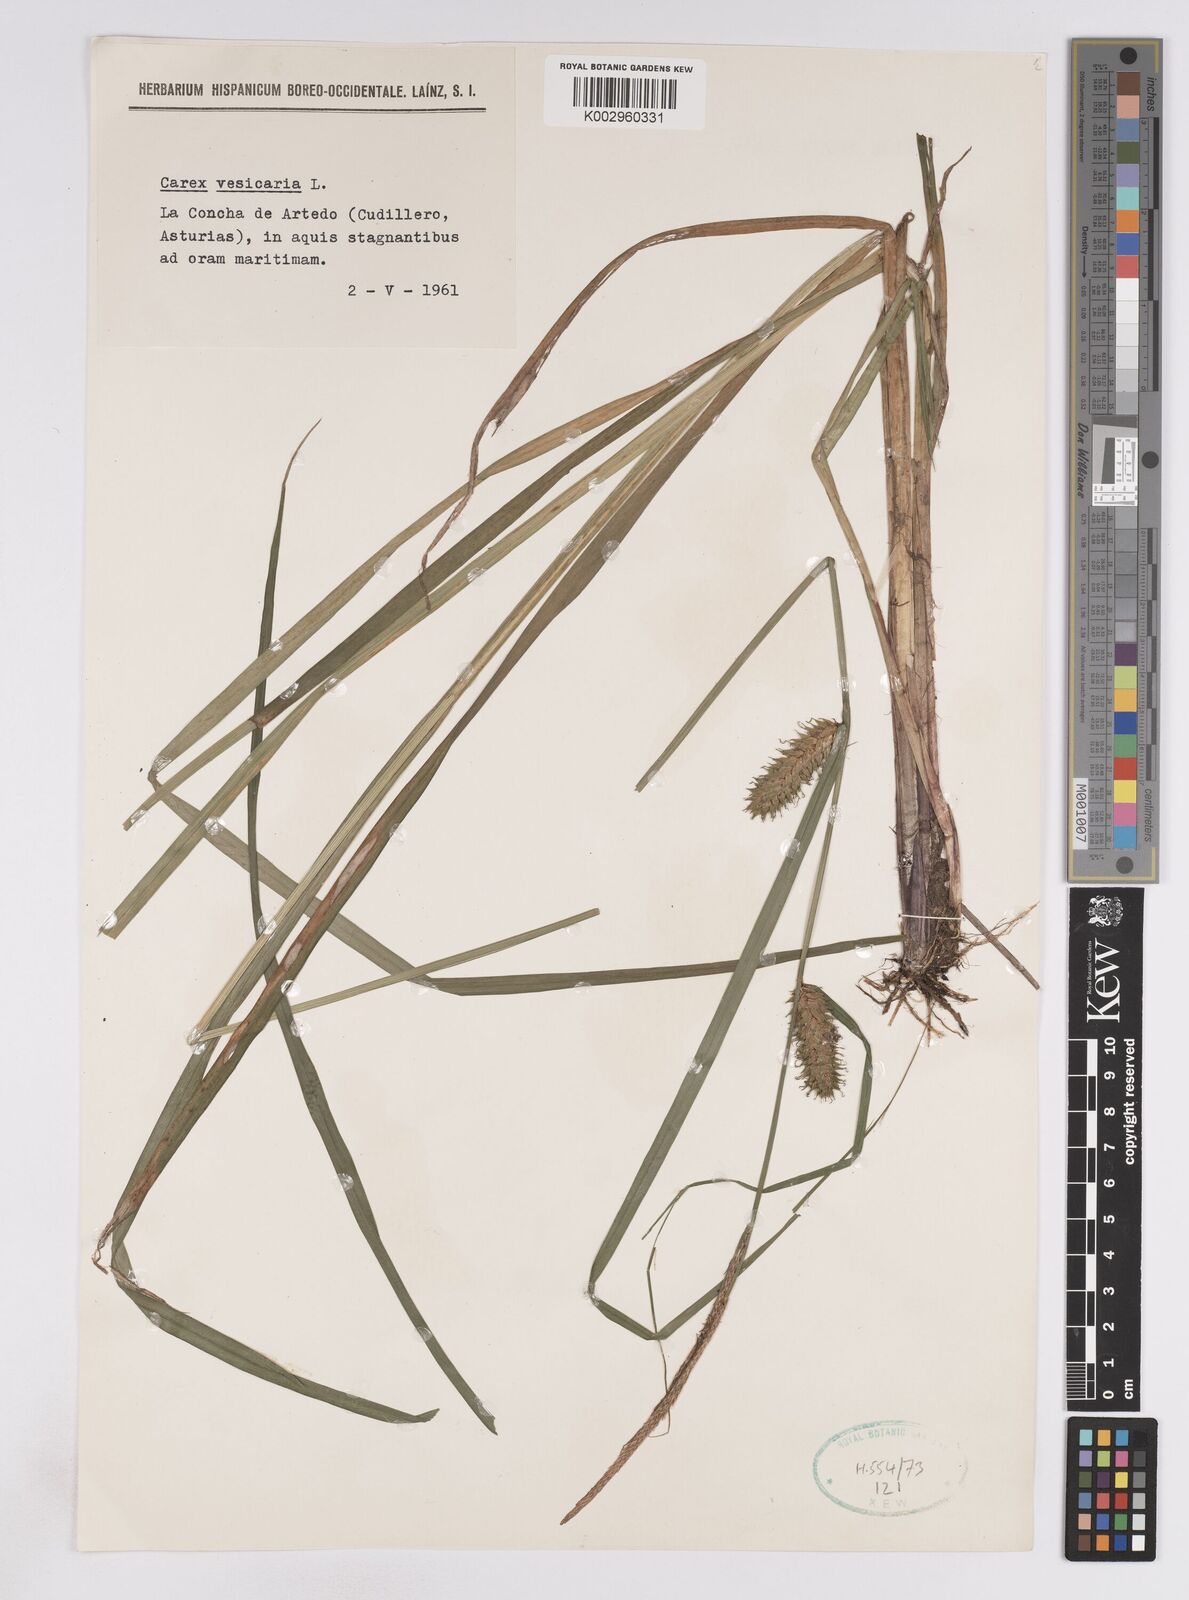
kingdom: Plantae
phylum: Tracheophyta
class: Liliopsida
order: Poales
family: Cyperaceae
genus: Carex
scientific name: Carex vesicaria
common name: Bladder-sedge
